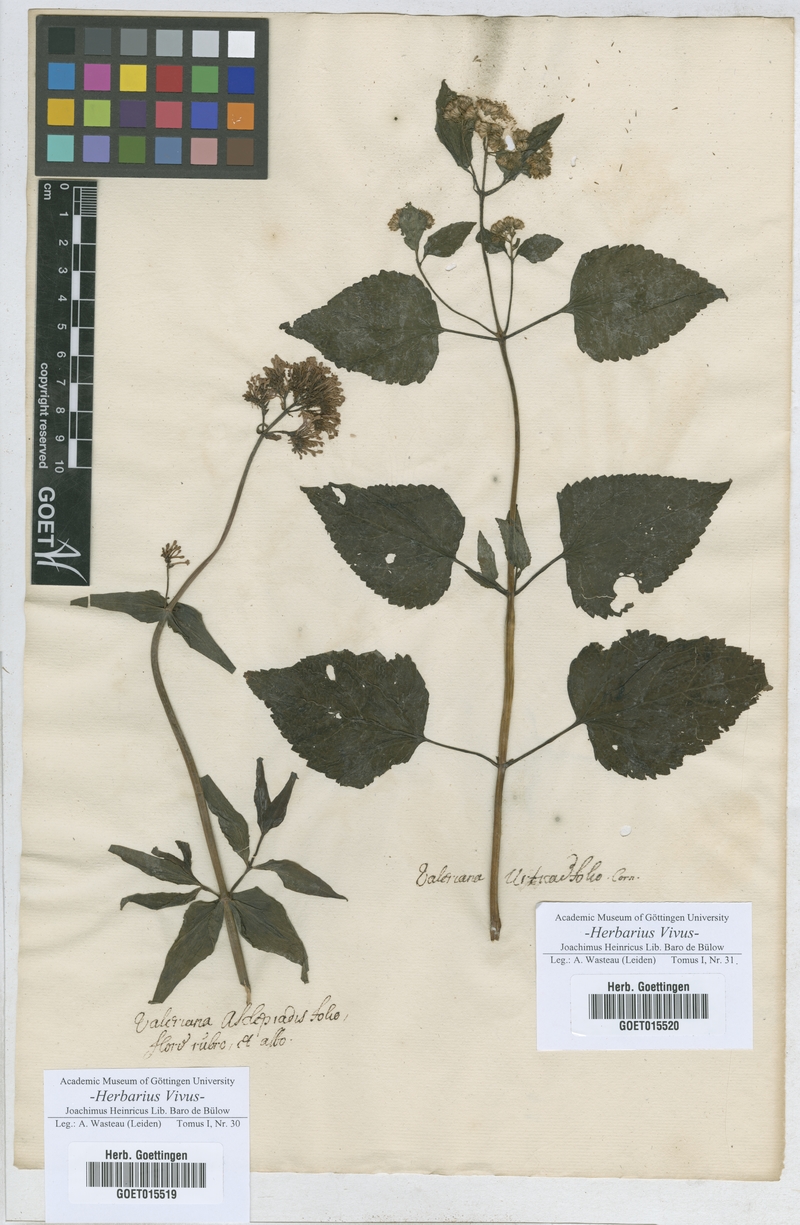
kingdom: Plantae
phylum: Tracheophyta
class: Magnoliopsida
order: Dipsacales
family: Caprifoliaceae
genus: Valeriana
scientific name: Valeriana
